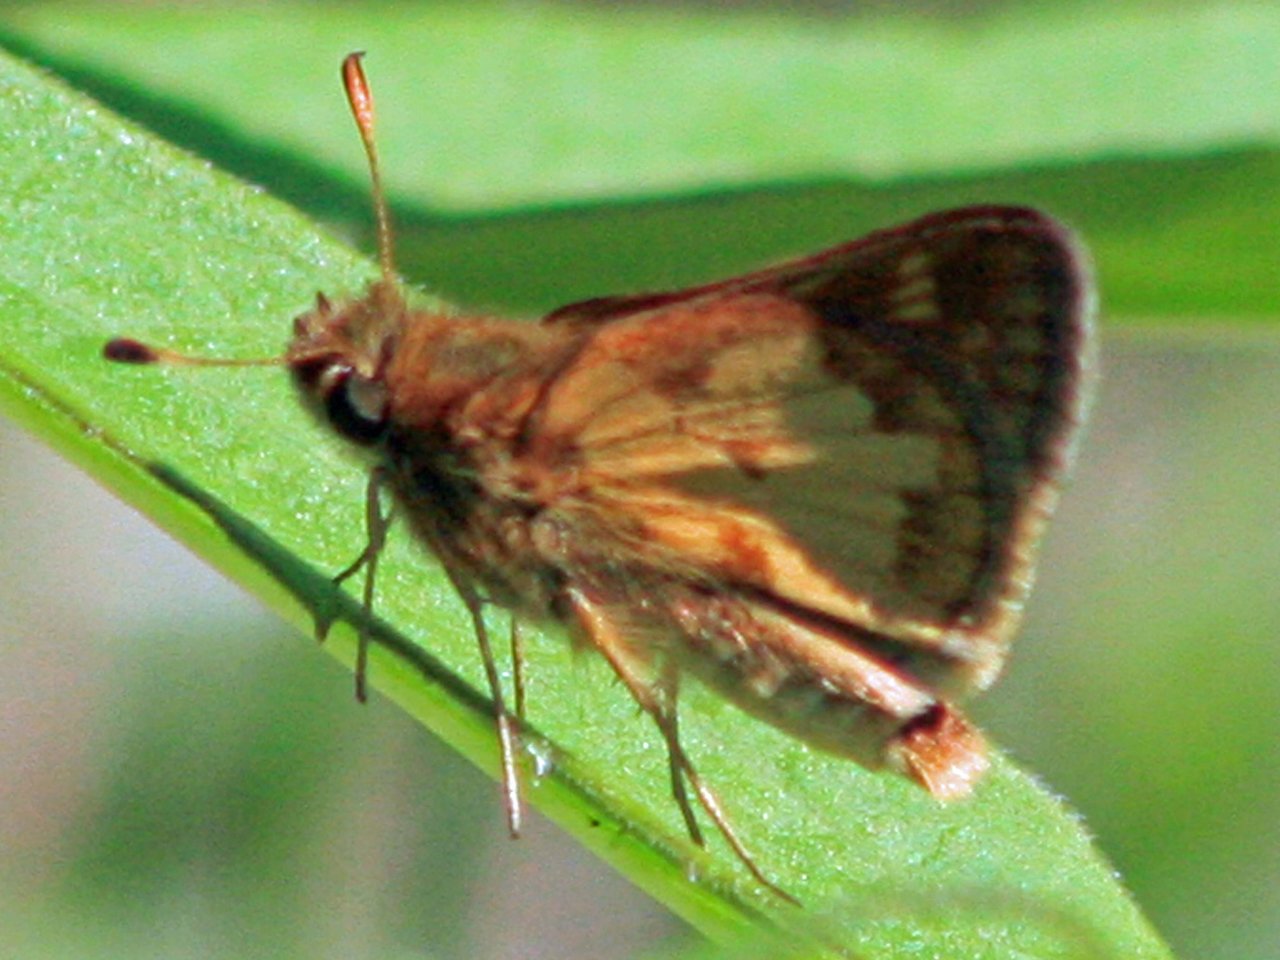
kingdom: Animalia
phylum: Arthropoda
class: Insecta
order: Lepidoptera
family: Hesperiidae
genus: Polites
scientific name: Polites coras
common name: Peck's Skipper
